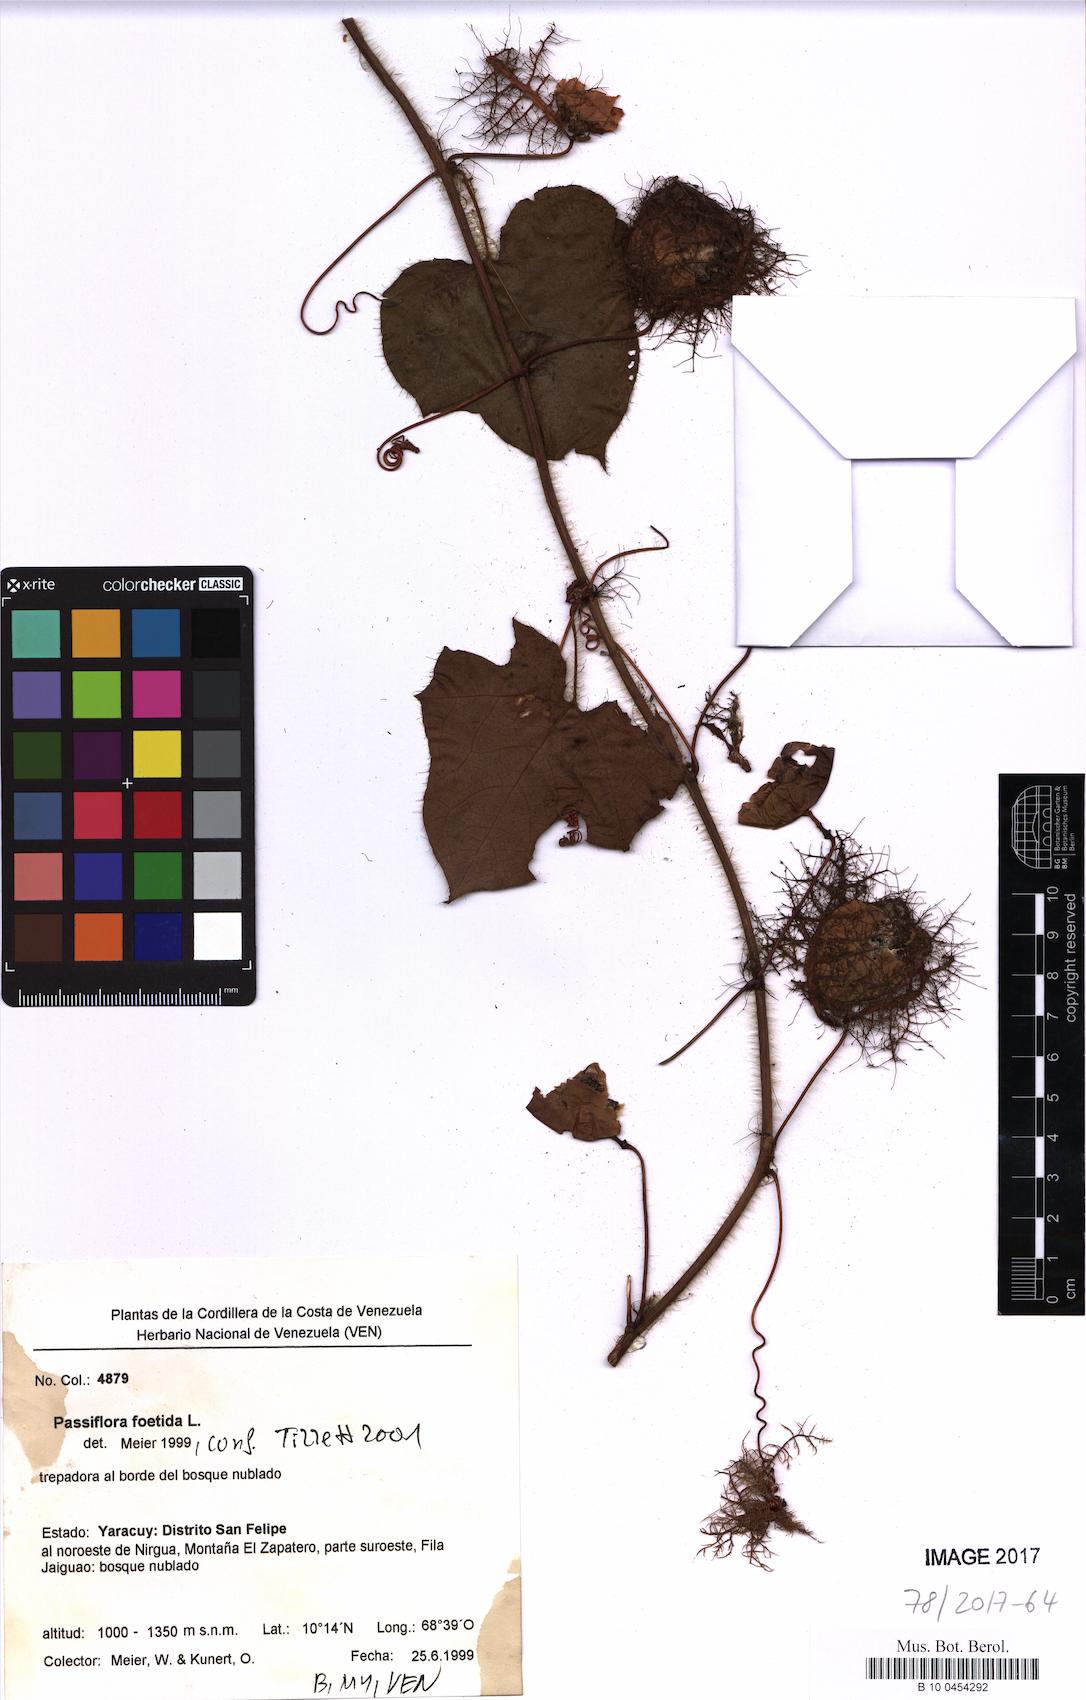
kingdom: Plantae
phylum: Tracheophyta
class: Magnoliopsida
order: Malpighiales
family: Passifloraceae
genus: Passiflora
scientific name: Passiflora foetida
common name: Fetid passionflower
